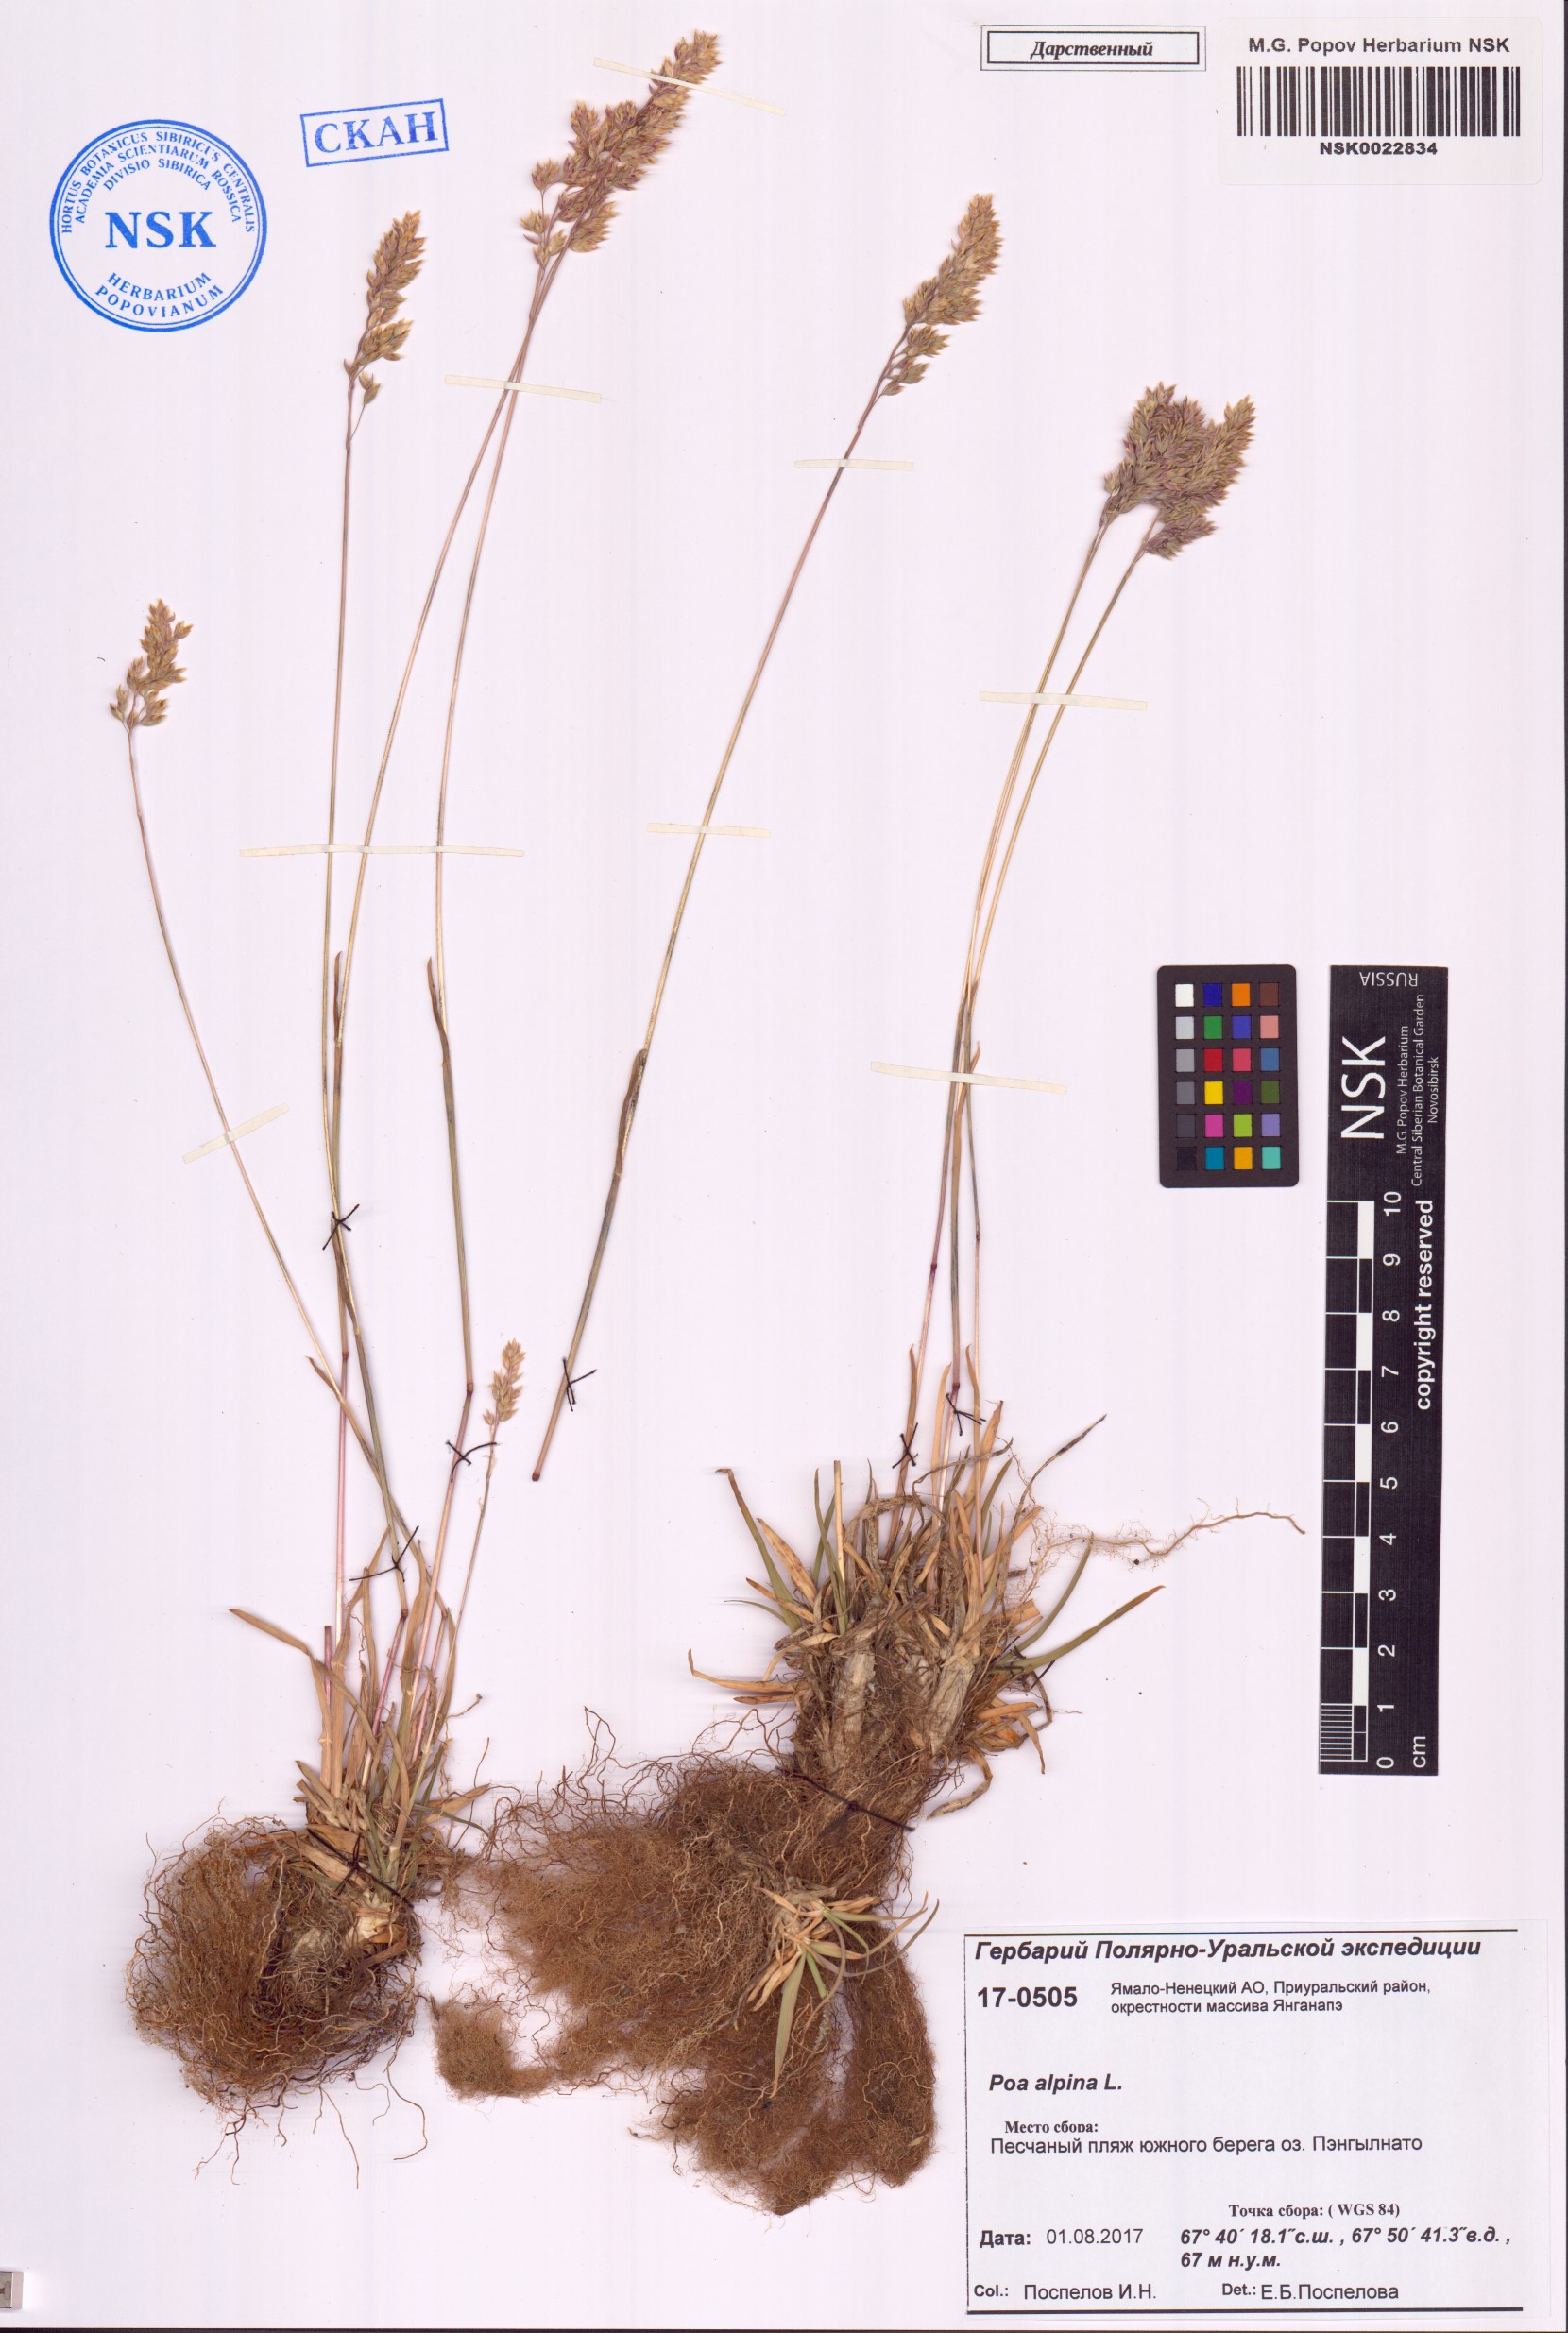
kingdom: Plantae
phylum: Tracheophyta
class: Liliopsida
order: Poales
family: Poaceae
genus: Poa
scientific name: Poa alpina
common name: Alpine bluegrass
